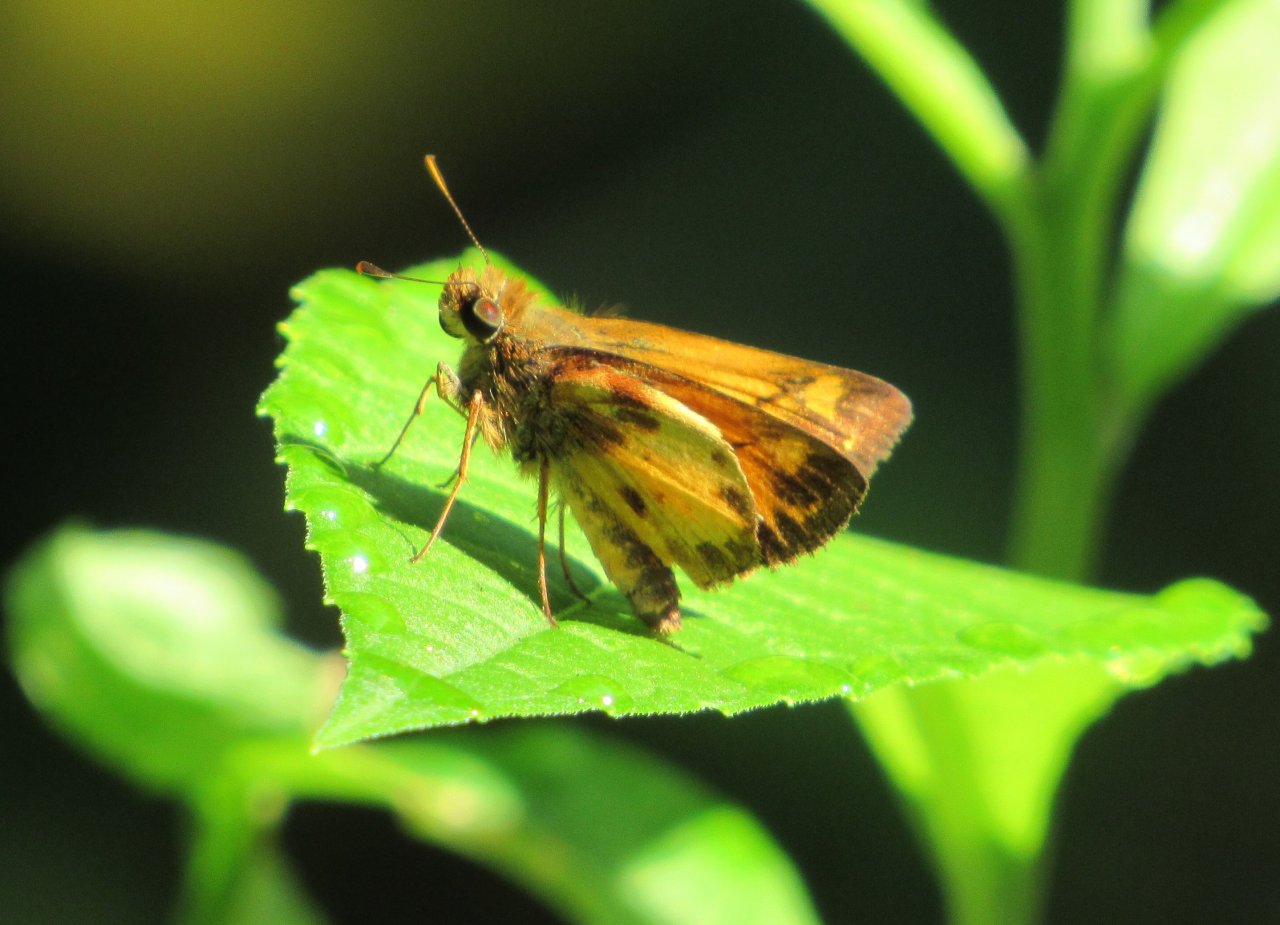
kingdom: Animalia
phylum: Arthropoda
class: Insecta
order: Lepidoptera
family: Hesperiidae
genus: Lon
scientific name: Lon zabulon
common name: Zabulon Skipper
